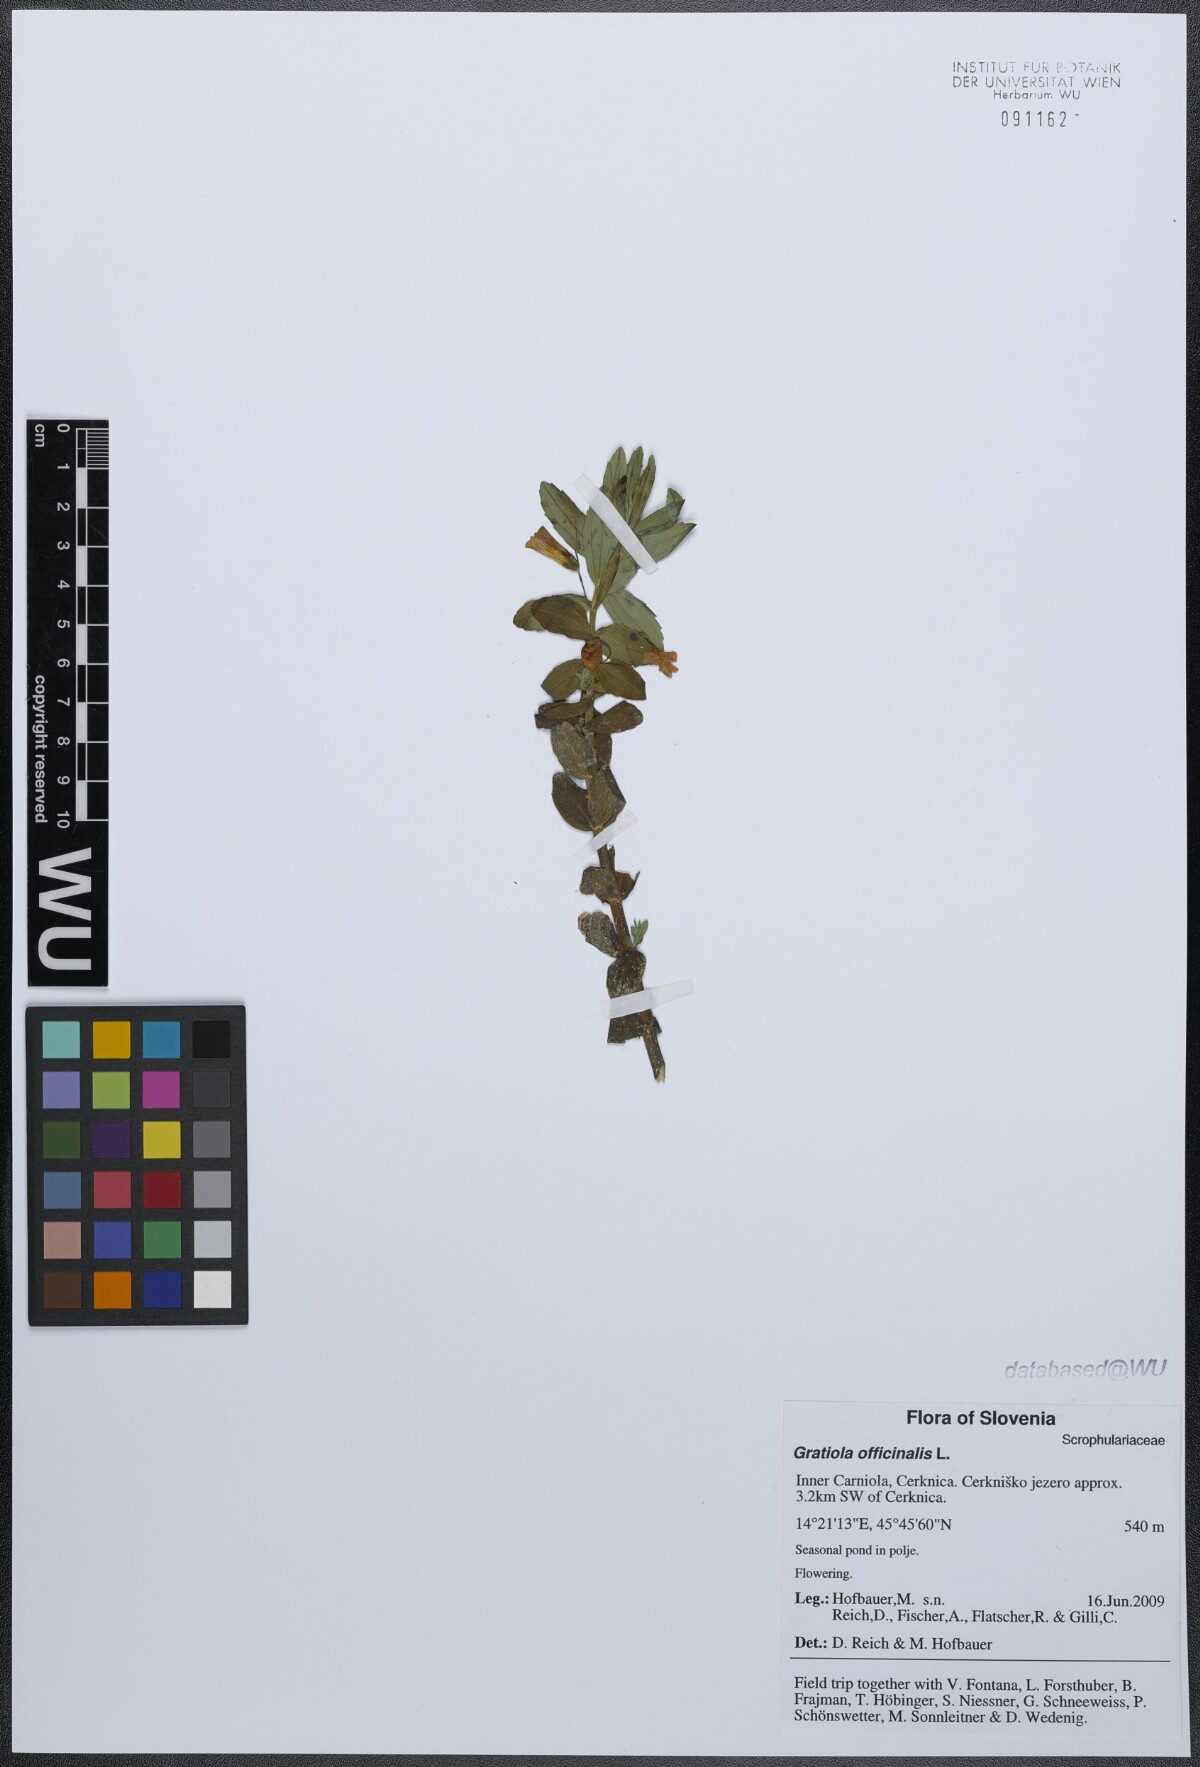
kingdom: Plantae
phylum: Tracheophyta
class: Magnoliopsida
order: Lamiales
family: Plantaginaceae
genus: Gratiola
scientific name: Gratiola officinalis
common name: Gratiola
